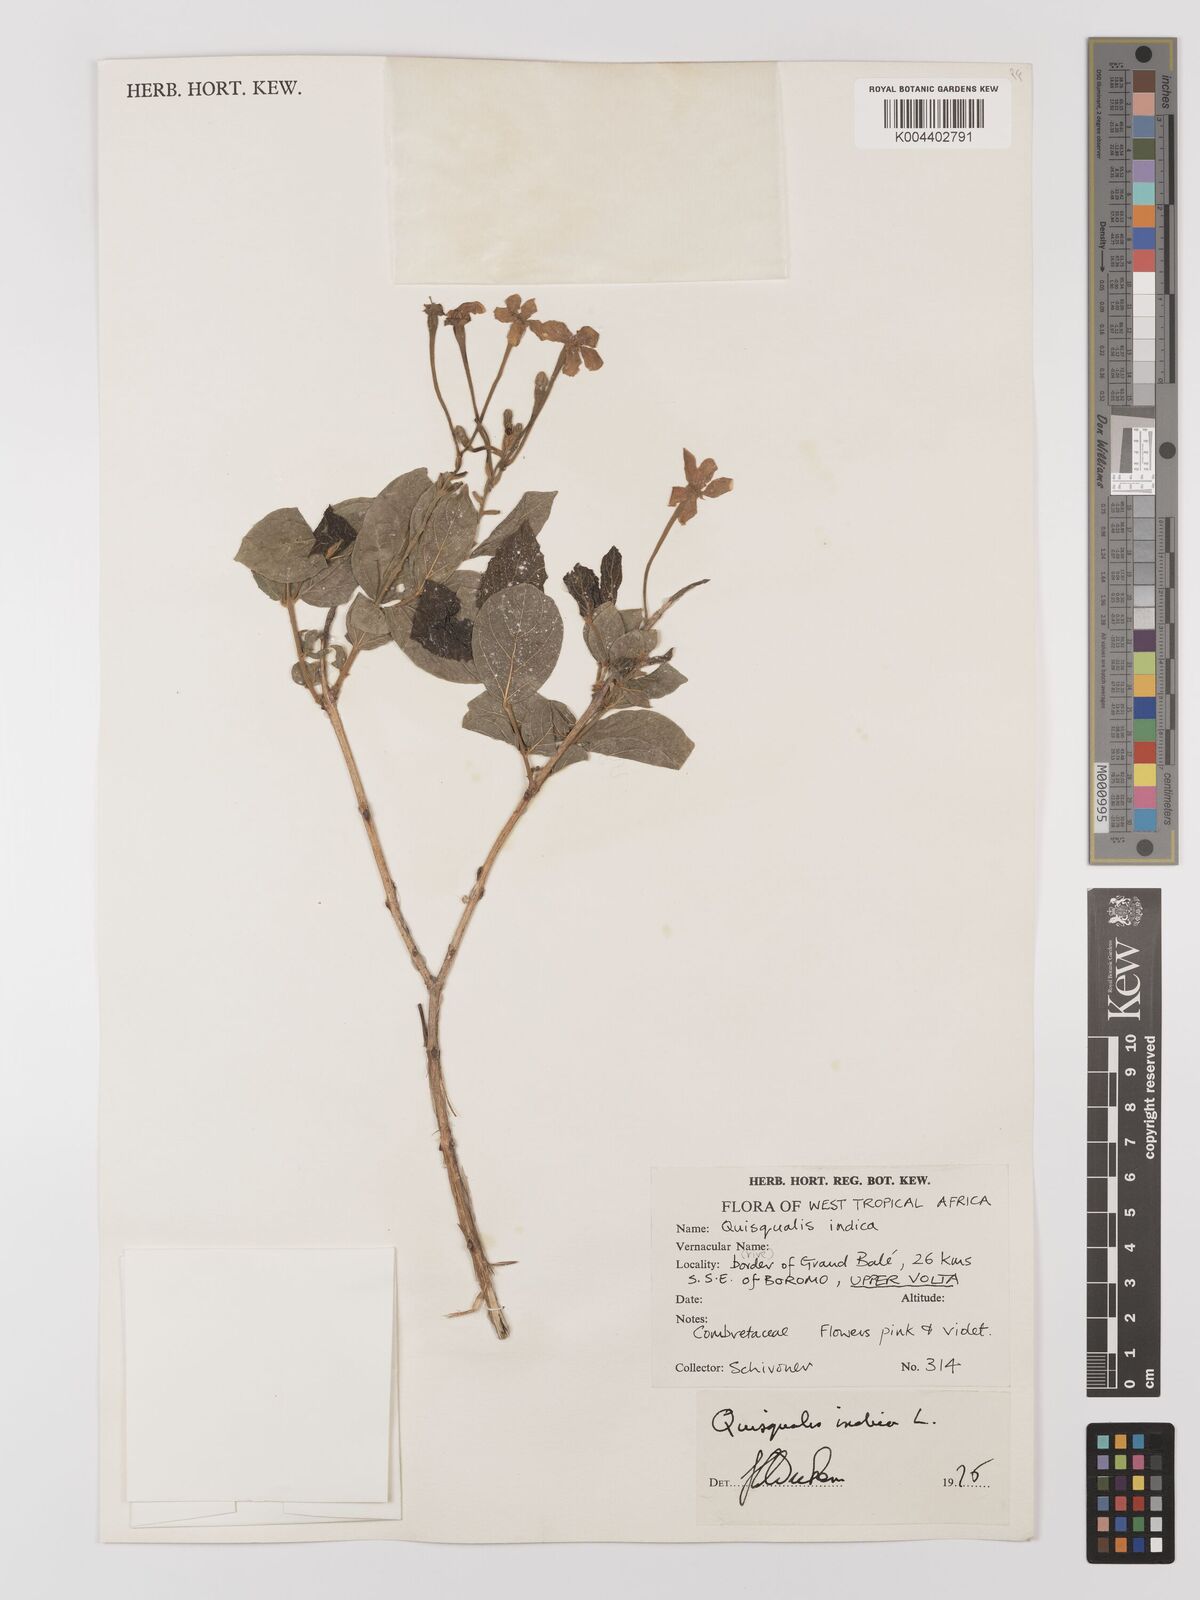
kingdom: Plantae
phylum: Tracheophyta
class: Magnoliopsida
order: Myrtales
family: Combretaceae
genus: Combretum
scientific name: Combretum
